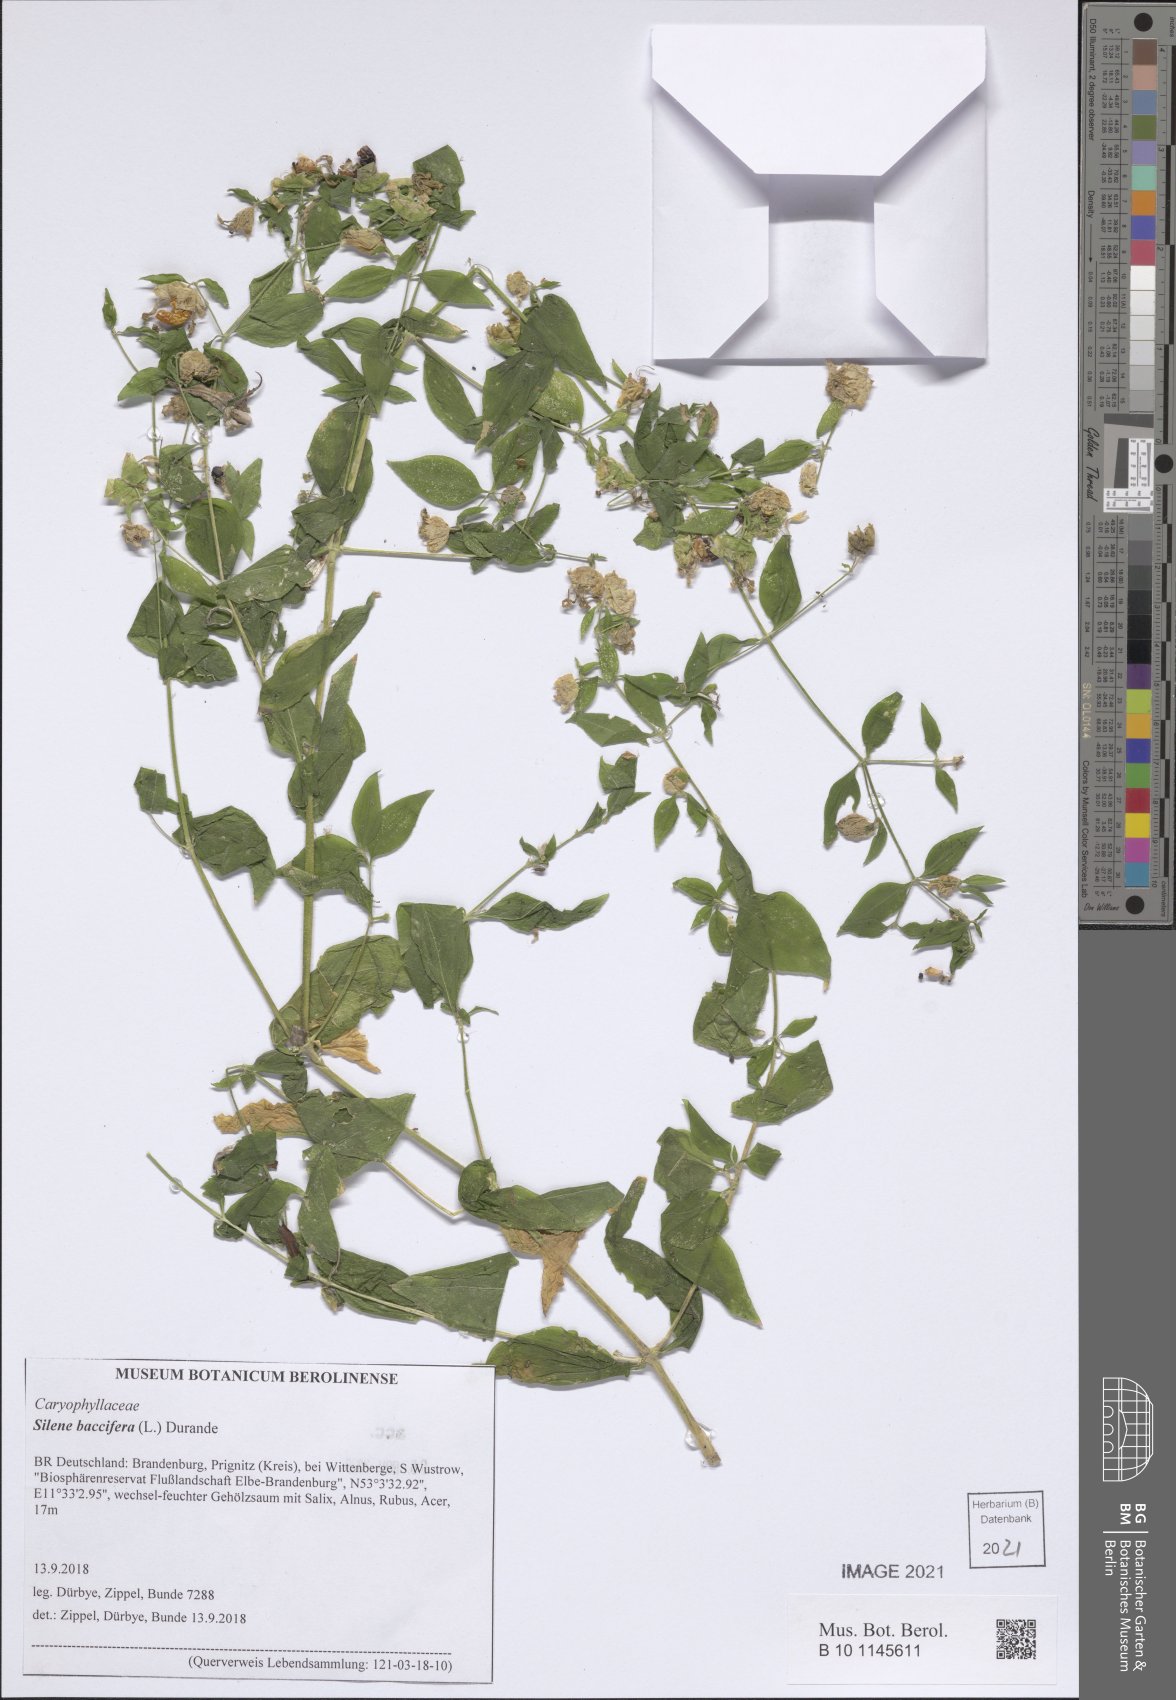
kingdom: Plantae
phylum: Tracheophyta
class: Magnoliopsida
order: Caryophyllales
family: Caryophyllaceae
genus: Silene
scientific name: Silene baccifera
